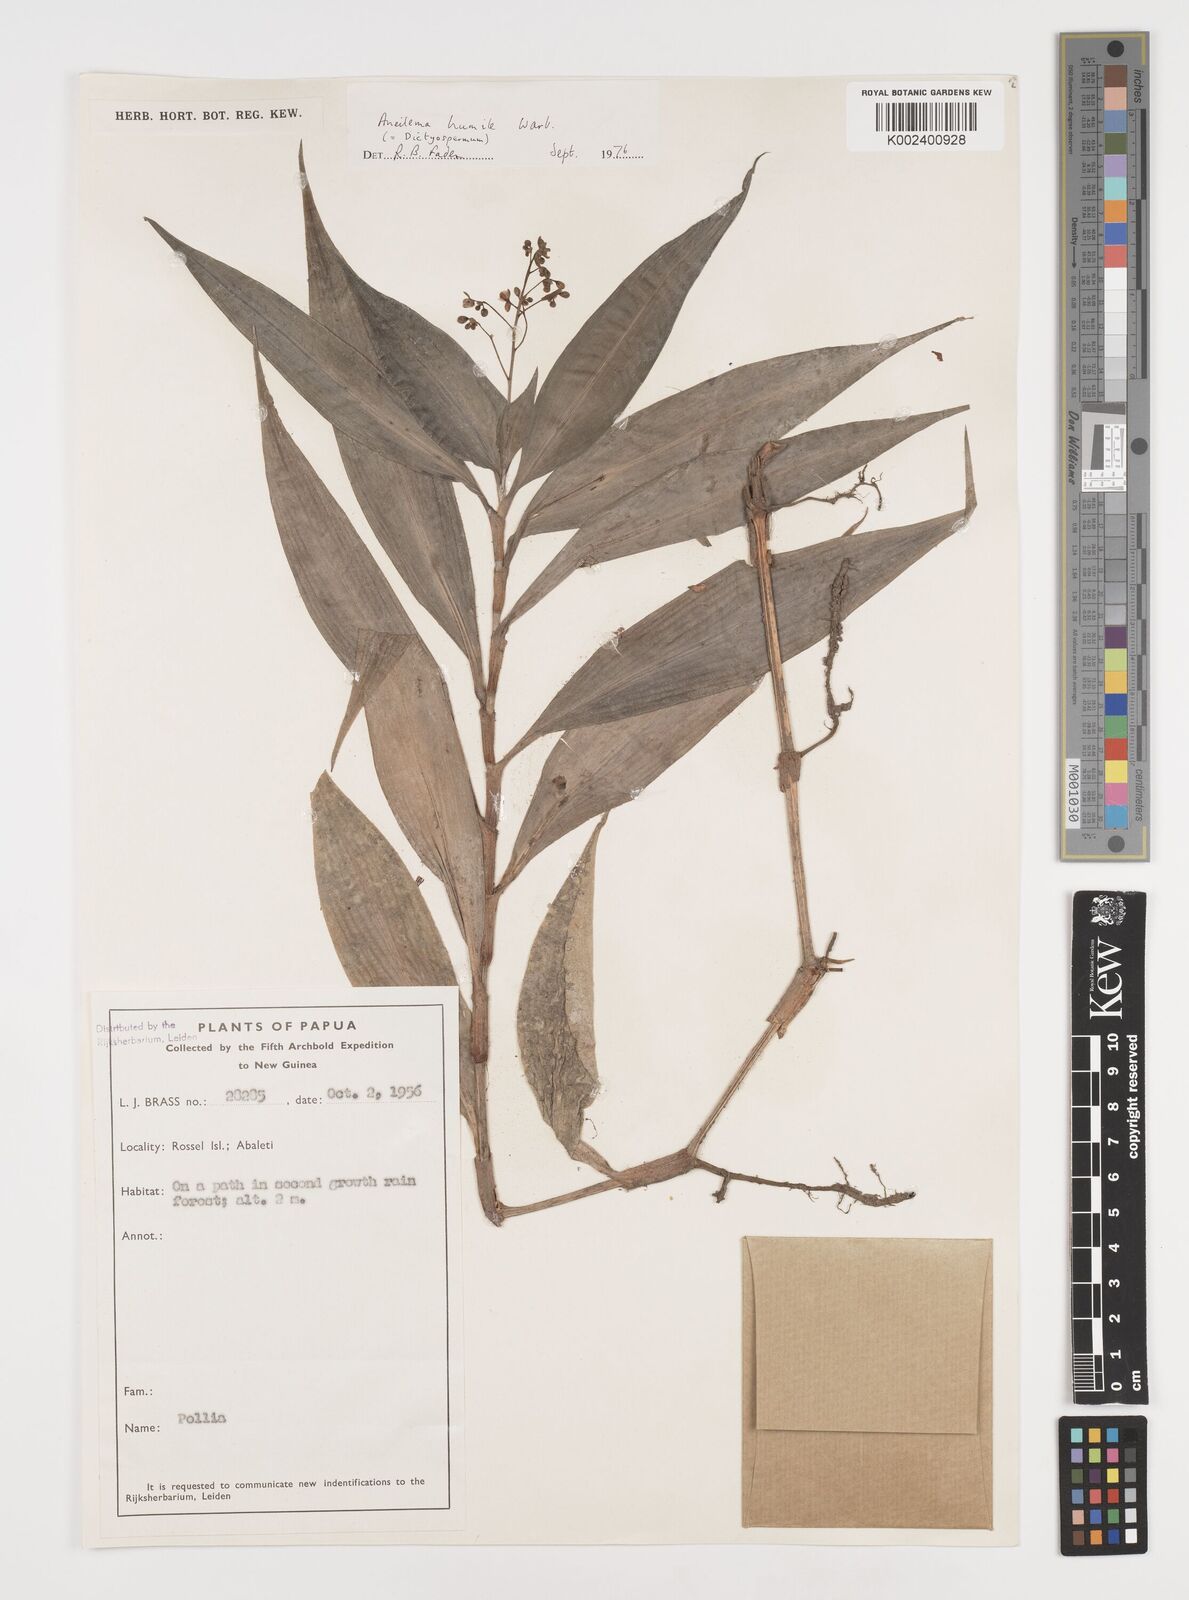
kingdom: Plantae
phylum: Tracheophyta
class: Liliopsida
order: Commelinales
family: Commelinaceae
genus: Dictyospermum
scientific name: Dictyospermum humile
